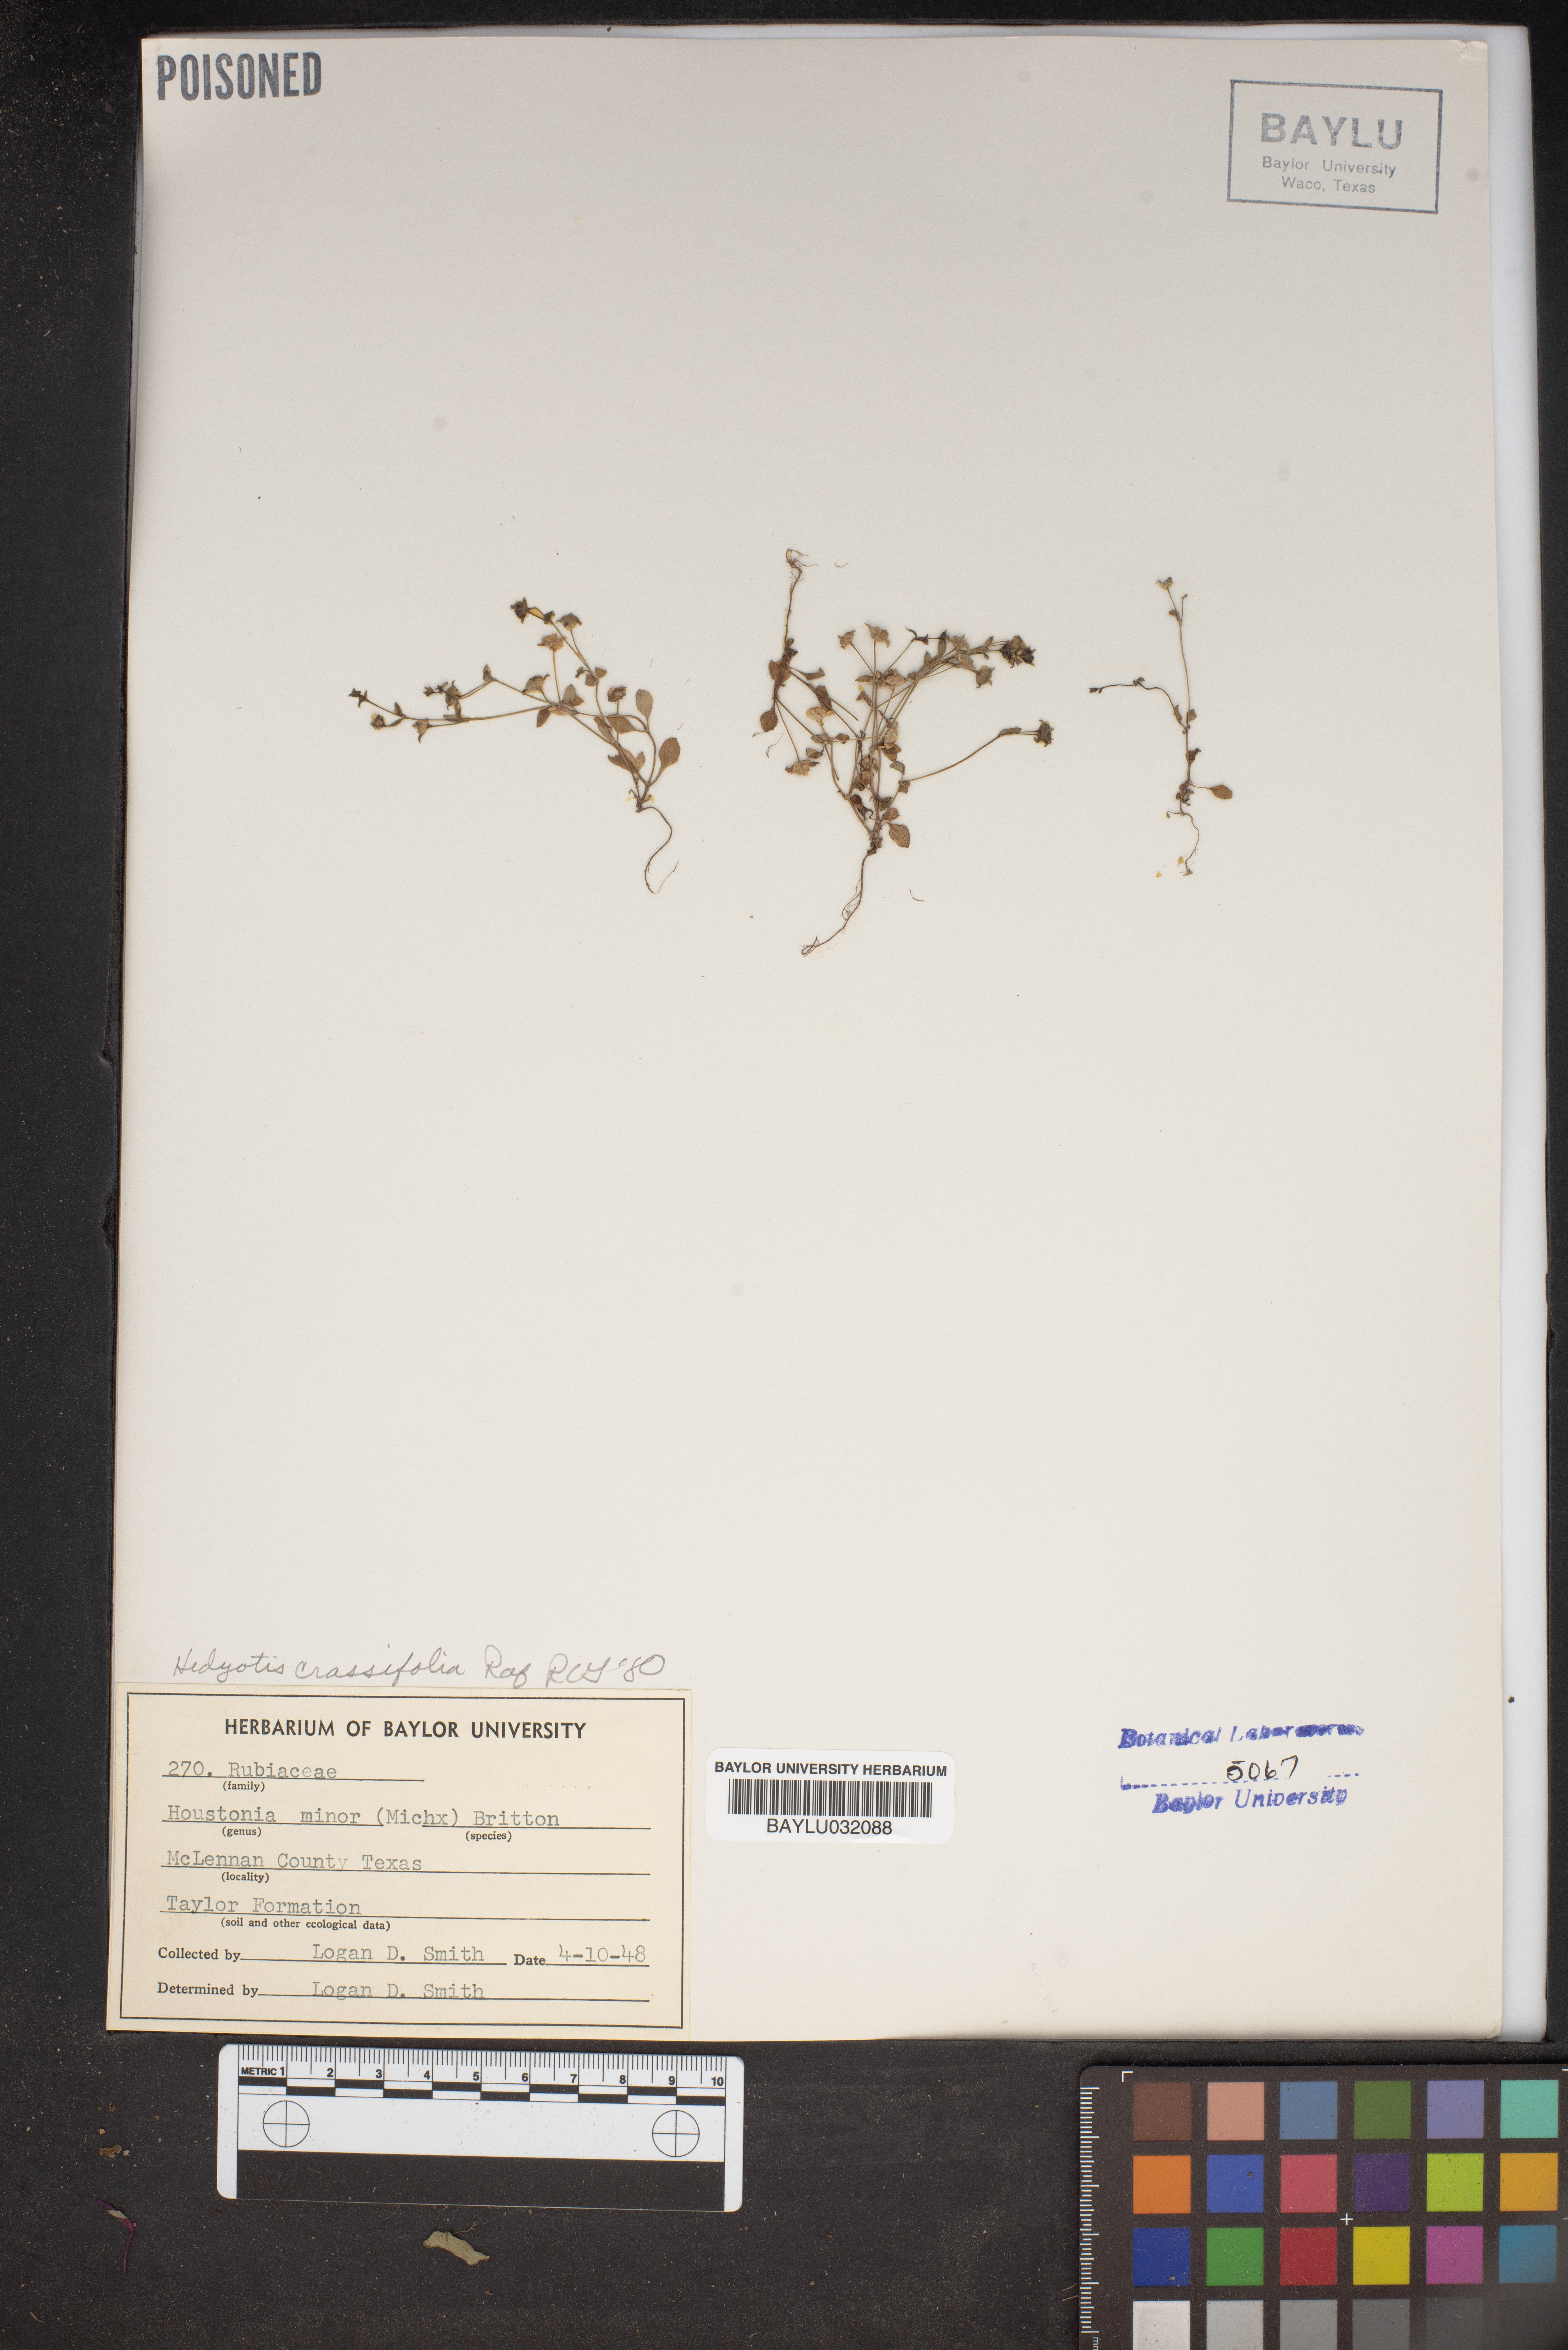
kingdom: Plantae
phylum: Tracheophyta
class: Magnoliopsida
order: Gentianales
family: Rubiaceae
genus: Houstonia
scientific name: Houstonia pusilla
